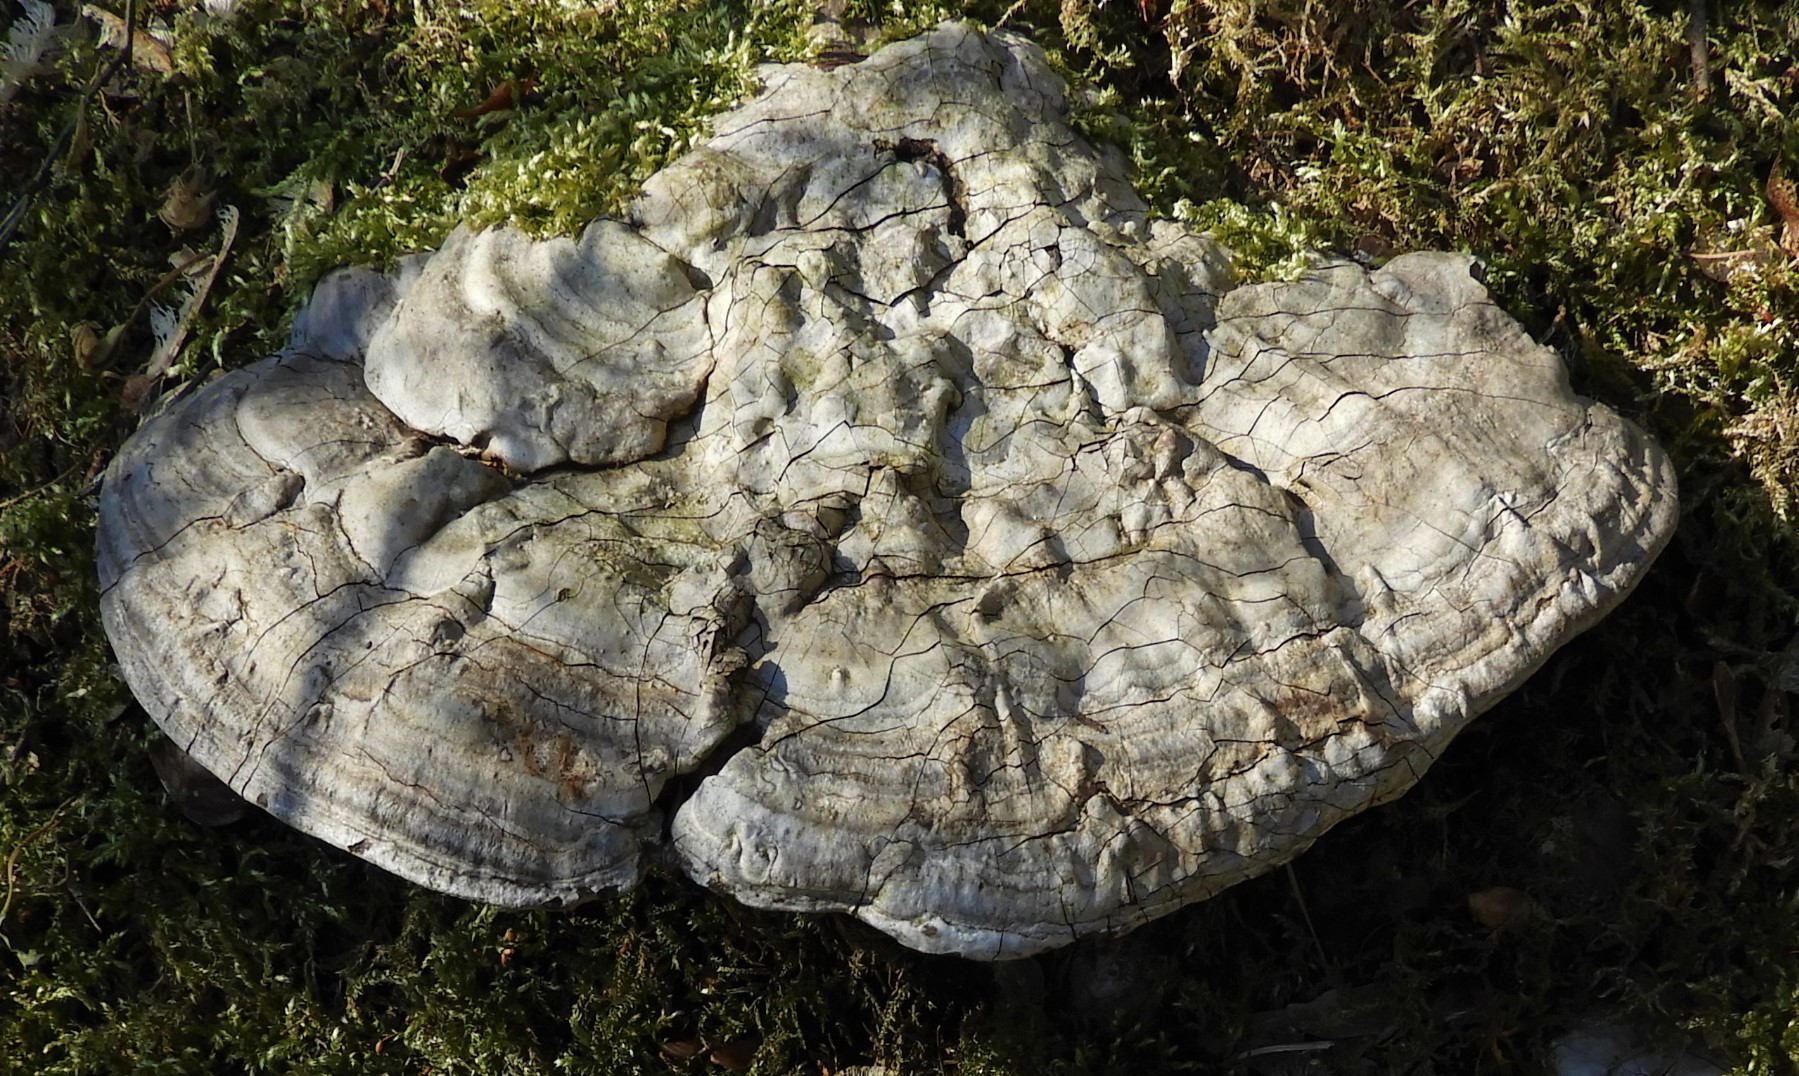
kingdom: Fungi
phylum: Basidiomycota
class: Agaricomycetes
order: Polyporales
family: Polyporaceae
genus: Ganoderma
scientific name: Ganoderma applanatum
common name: flad lakporesvamp
